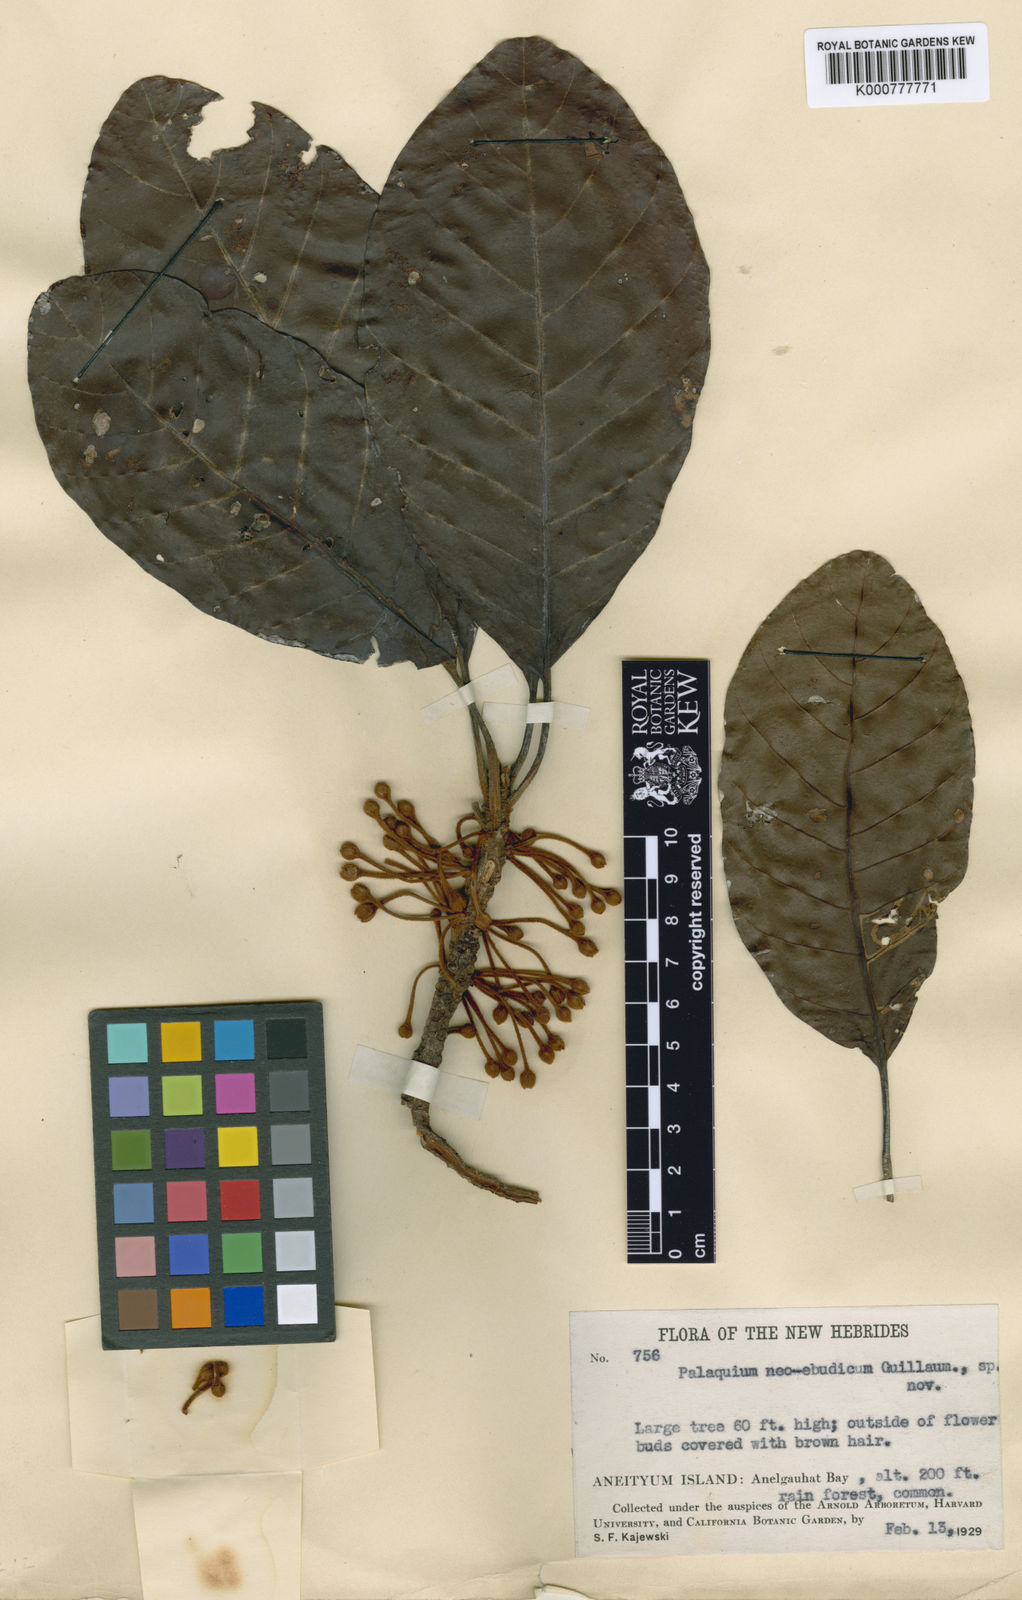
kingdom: Plantae
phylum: Tracheophyta
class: Magnoliopsida
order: Ericales
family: Sapotaceae
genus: Palaquium
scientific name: Palaquium neoebudicum
